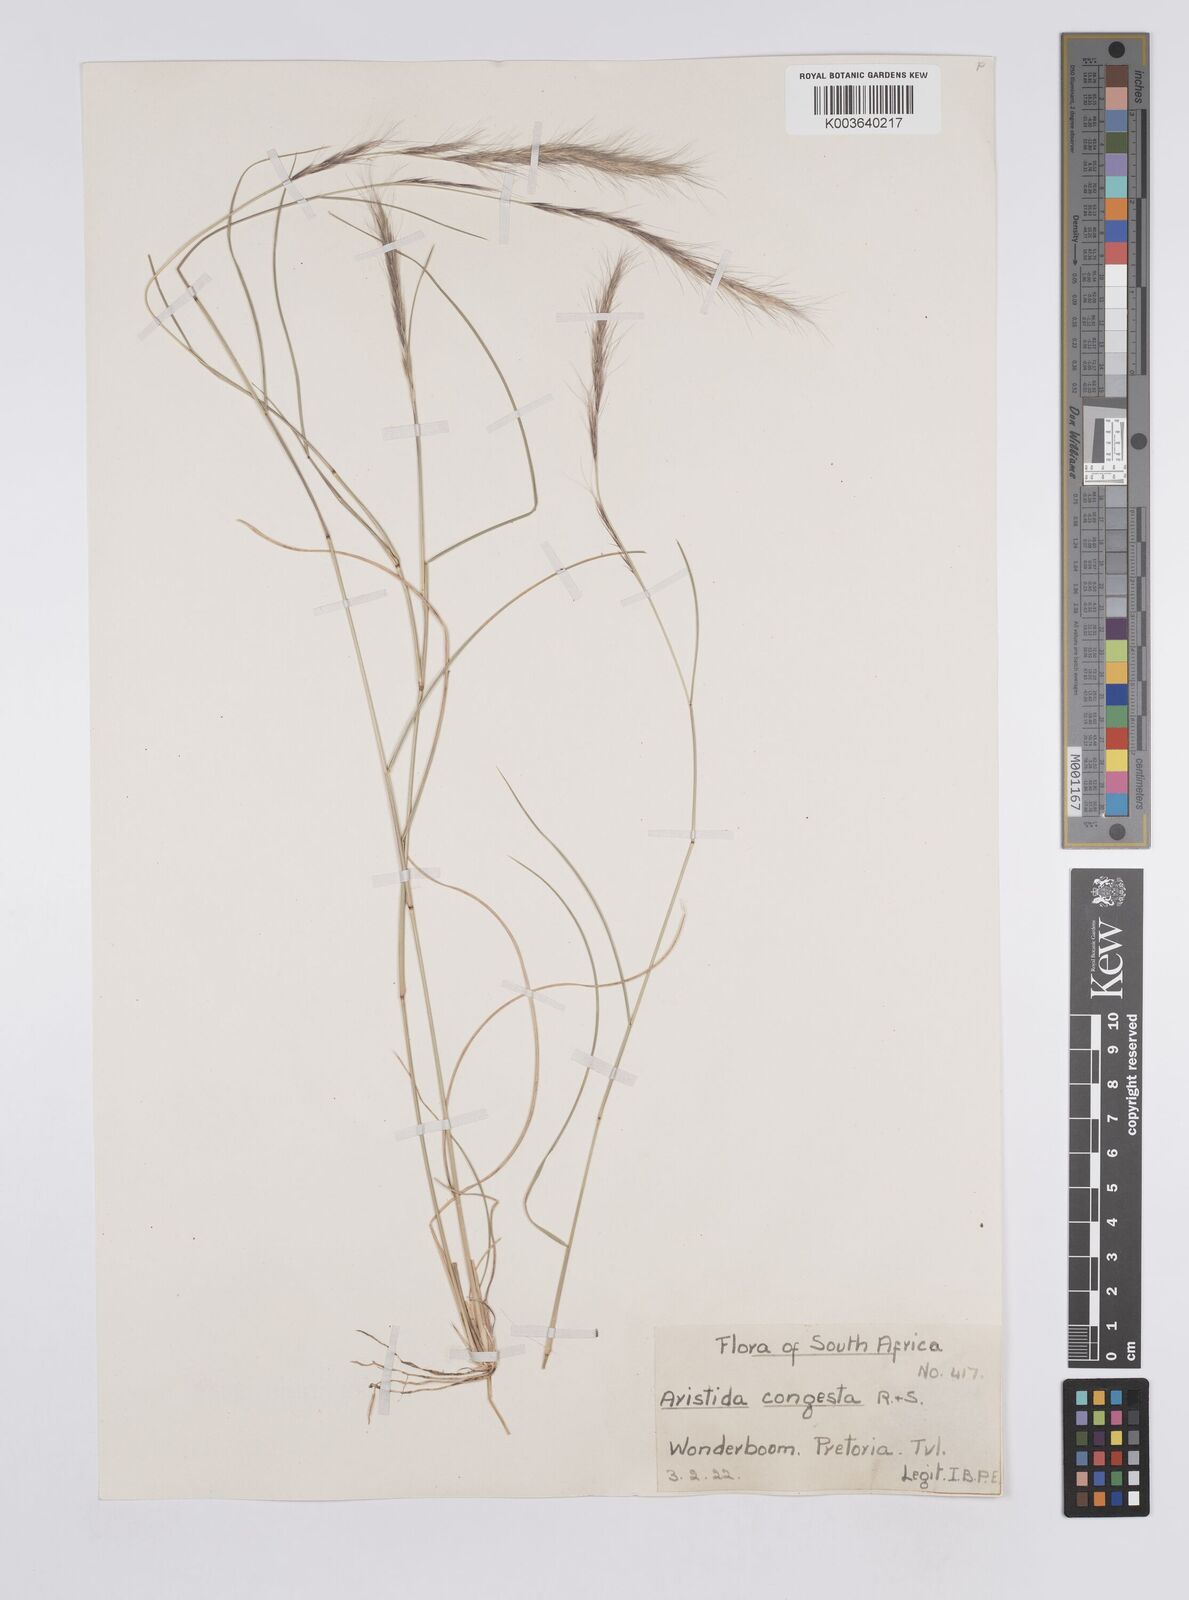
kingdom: Plantae
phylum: Tracheophyta
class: Liliopsida
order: Poales
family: Poaceae
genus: Aristida
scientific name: Aristida congesta
